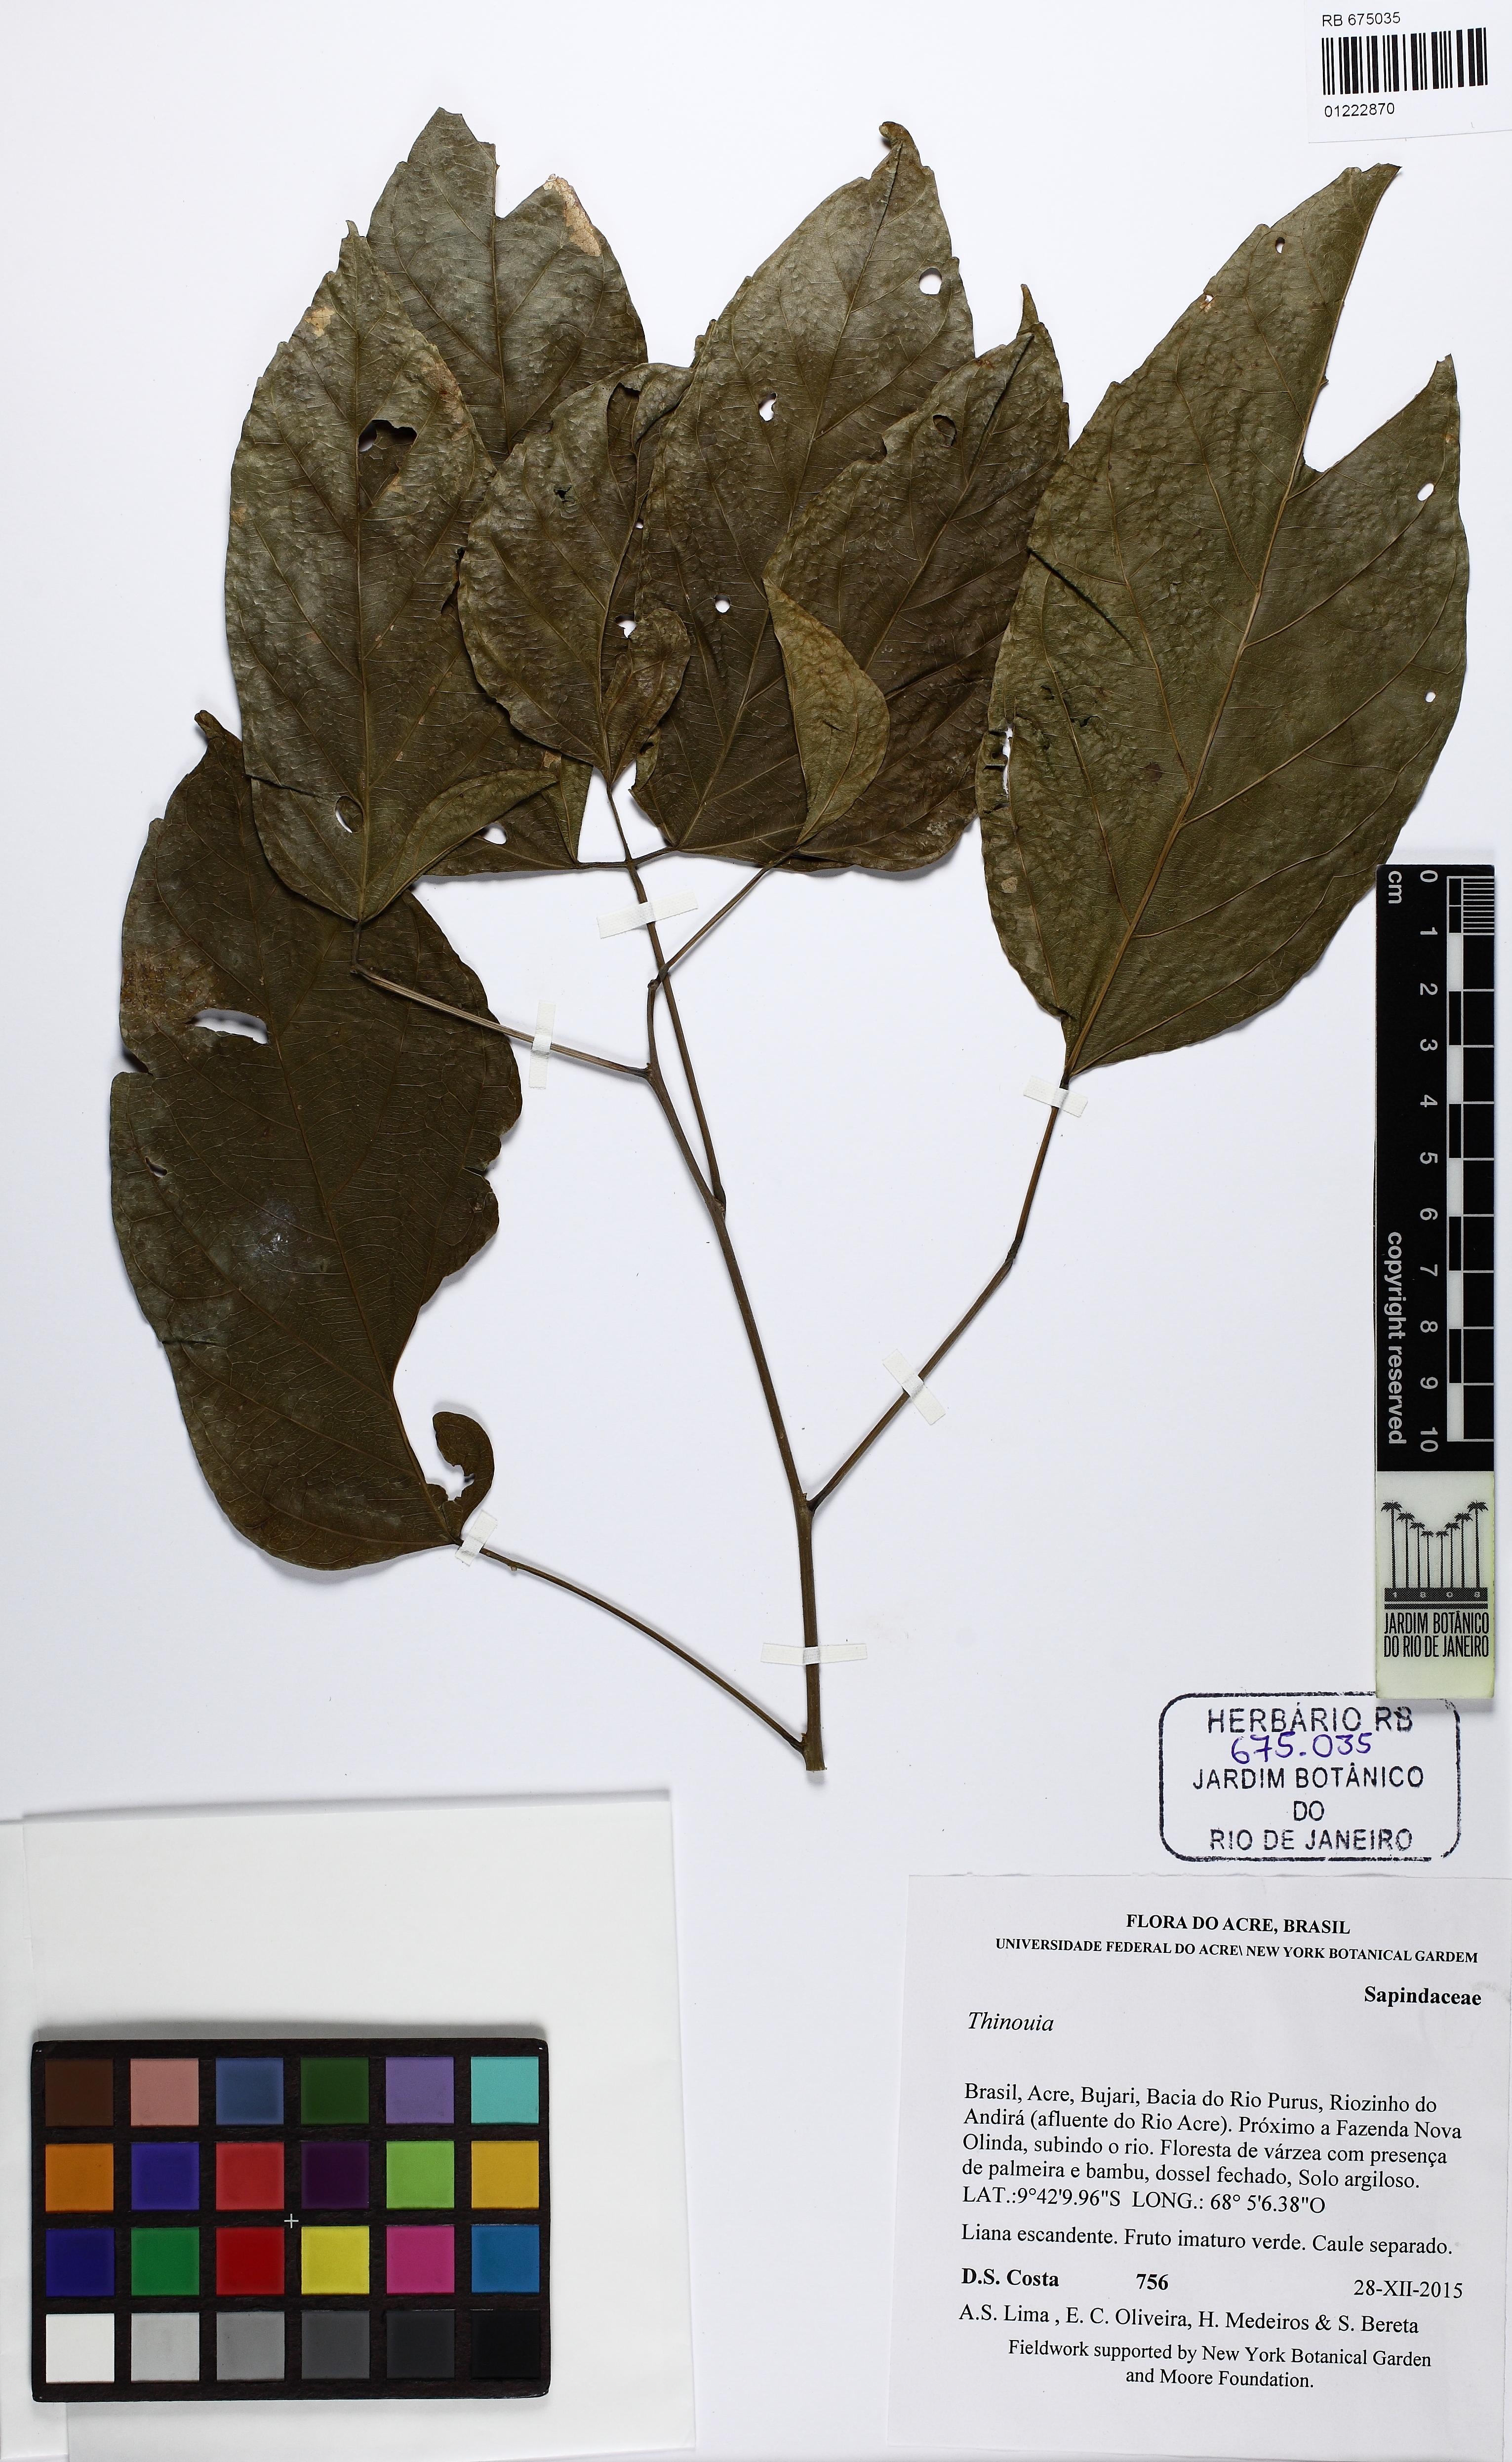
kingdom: Plantae
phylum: Tracheophyta
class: Magnoliopsida
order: Sapindales
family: Sapindaceae
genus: Thinouia
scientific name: Thinouia myriantha
